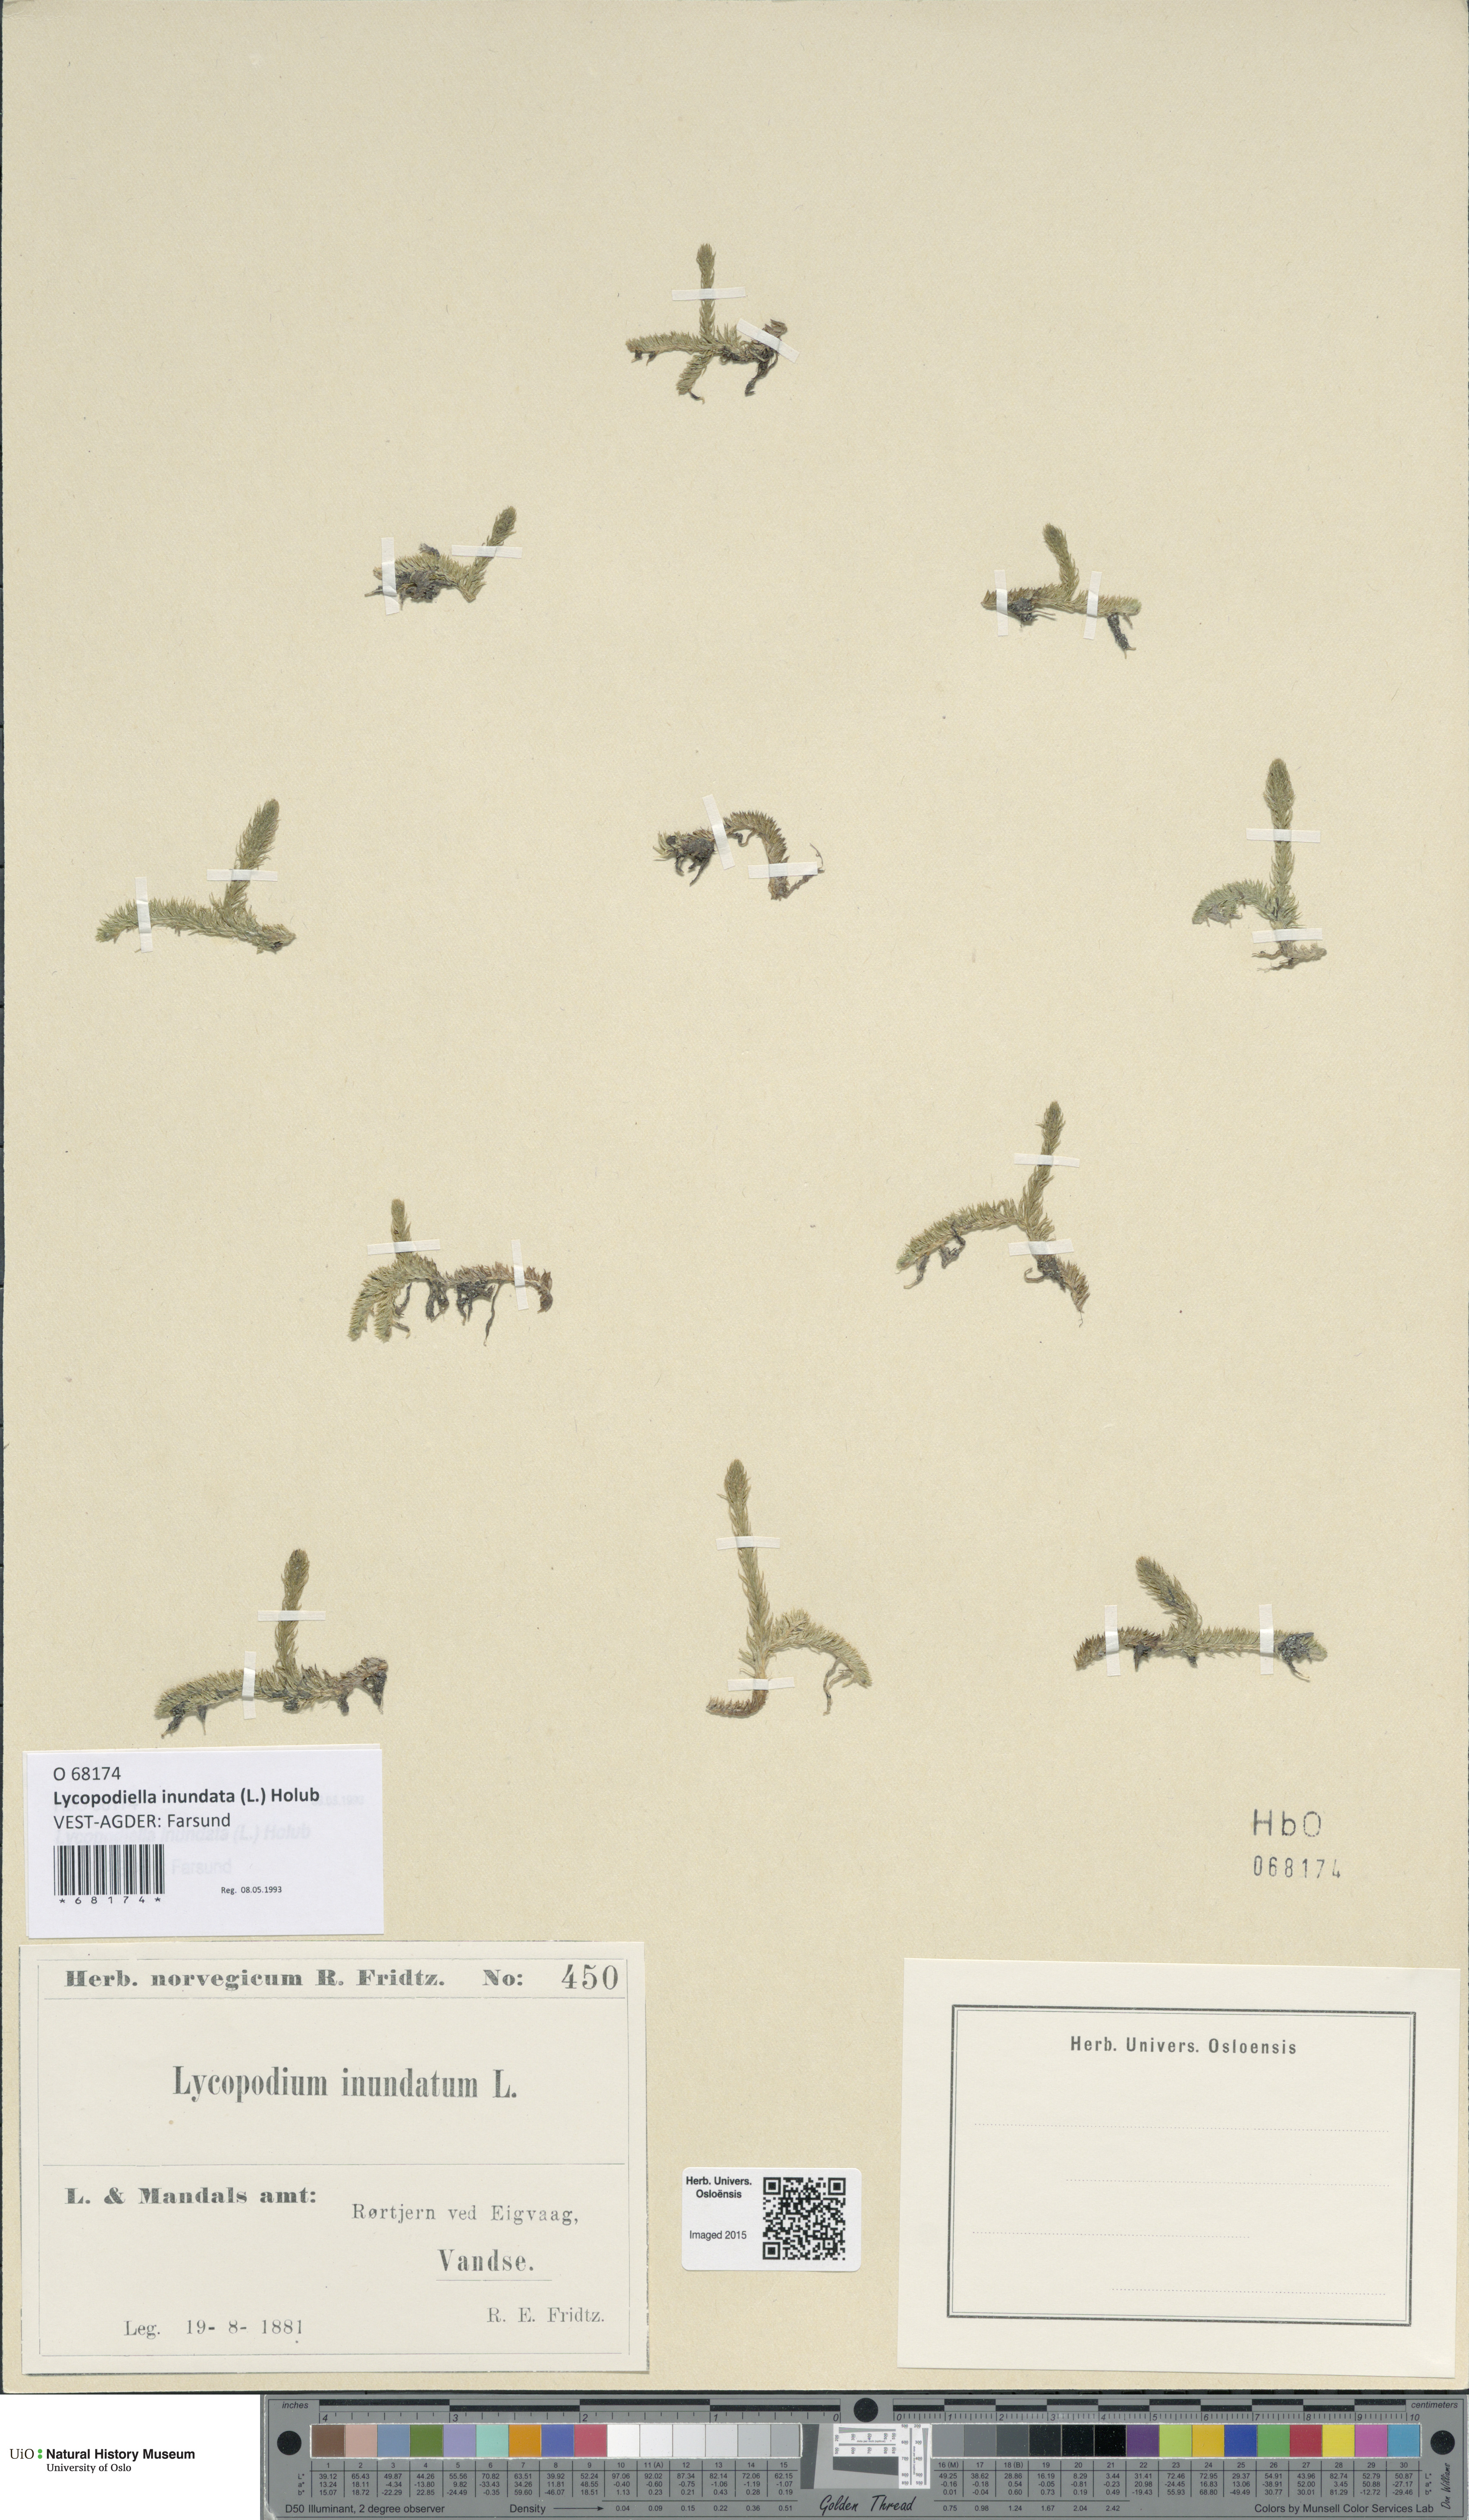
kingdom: Plantae
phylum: Tracheophyta
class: Lycopodiopsida
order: Lycopodiales
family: Lycopodiaceae
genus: Lycopodiella
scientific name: Lycopodiella inundata
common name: Marsh clubmoss
